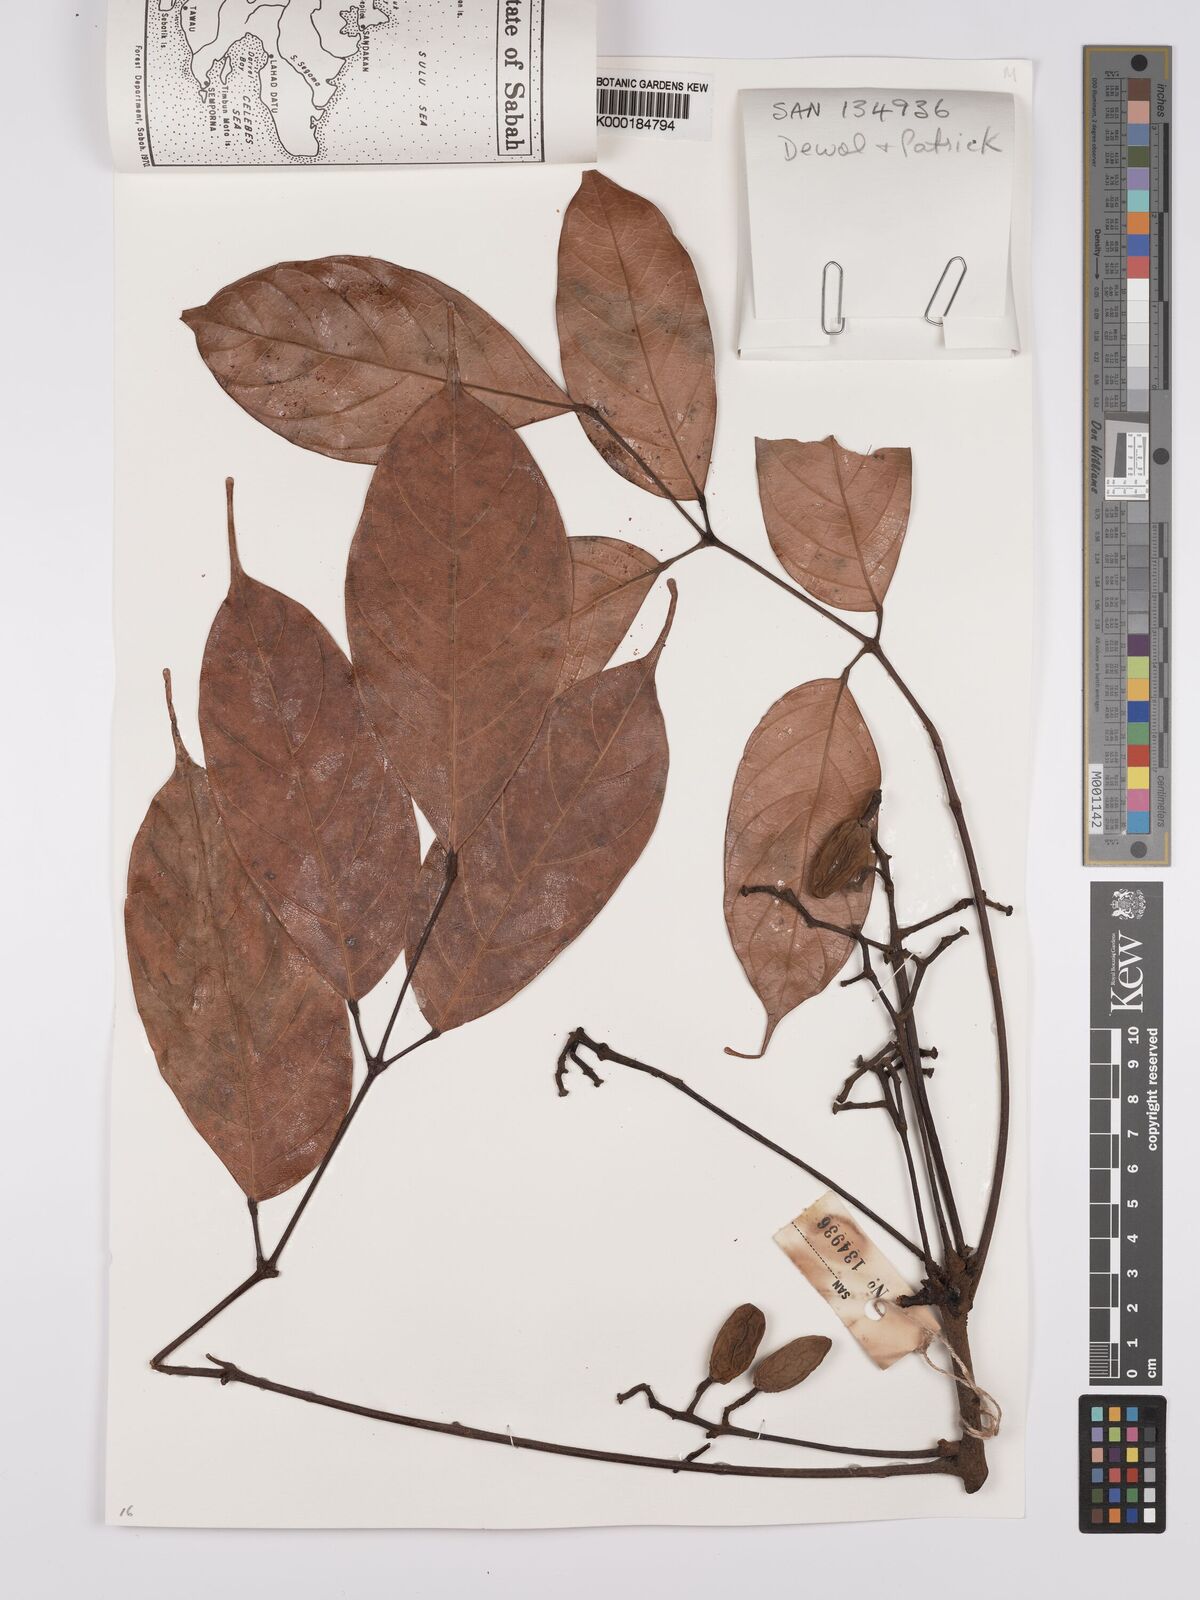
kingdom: Plantae
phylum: Tracheophyta
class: Magnoliopsida
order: Sapindales
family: Burseraceae
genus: Dacryodes
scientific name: Dacryodes rostrata
